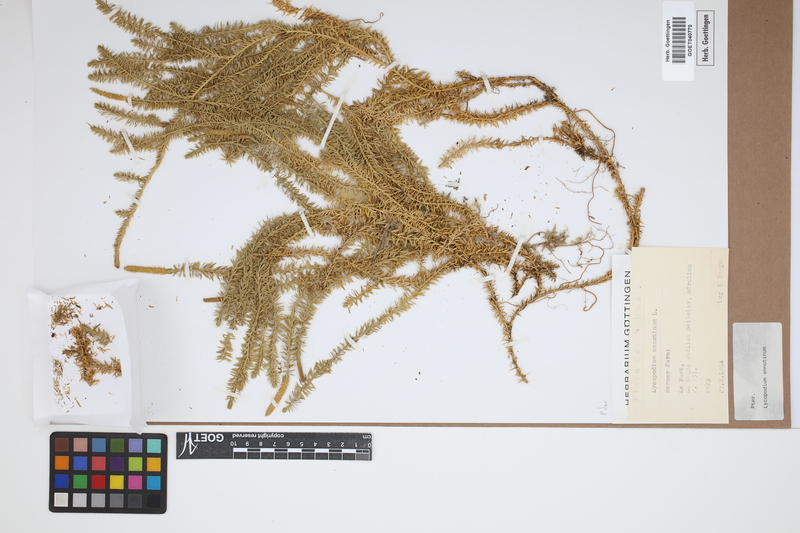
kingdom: Plantae
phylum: Tracheophyta
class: Lycopodiopsida
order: Lycopodiales
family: Lycopodiaceae
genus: Spinulum
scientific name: Spinulum annotinum
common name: Interrupted club-moss
